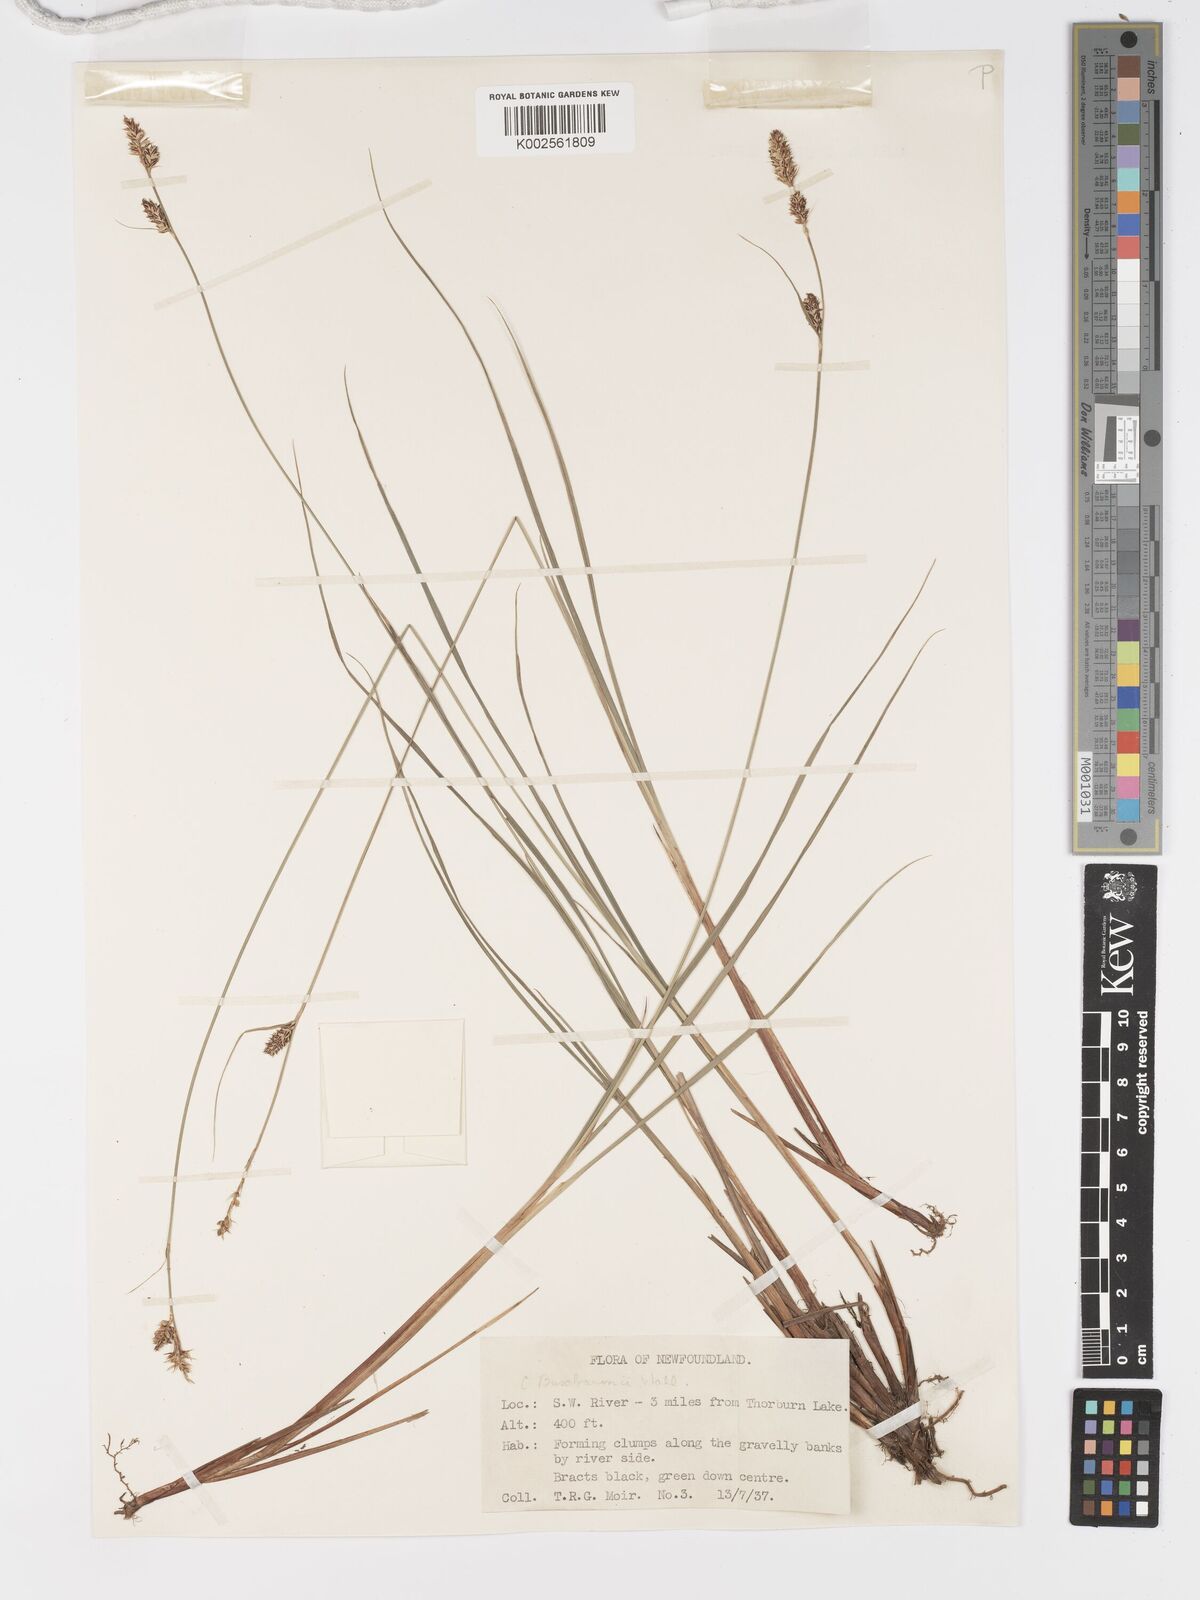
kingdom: Plantae
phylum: Tracheophyta
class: Liliopsida
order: Poales
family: Cyperaceae
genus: Carex
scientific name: Carex buxbaumii
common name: Club sedge
